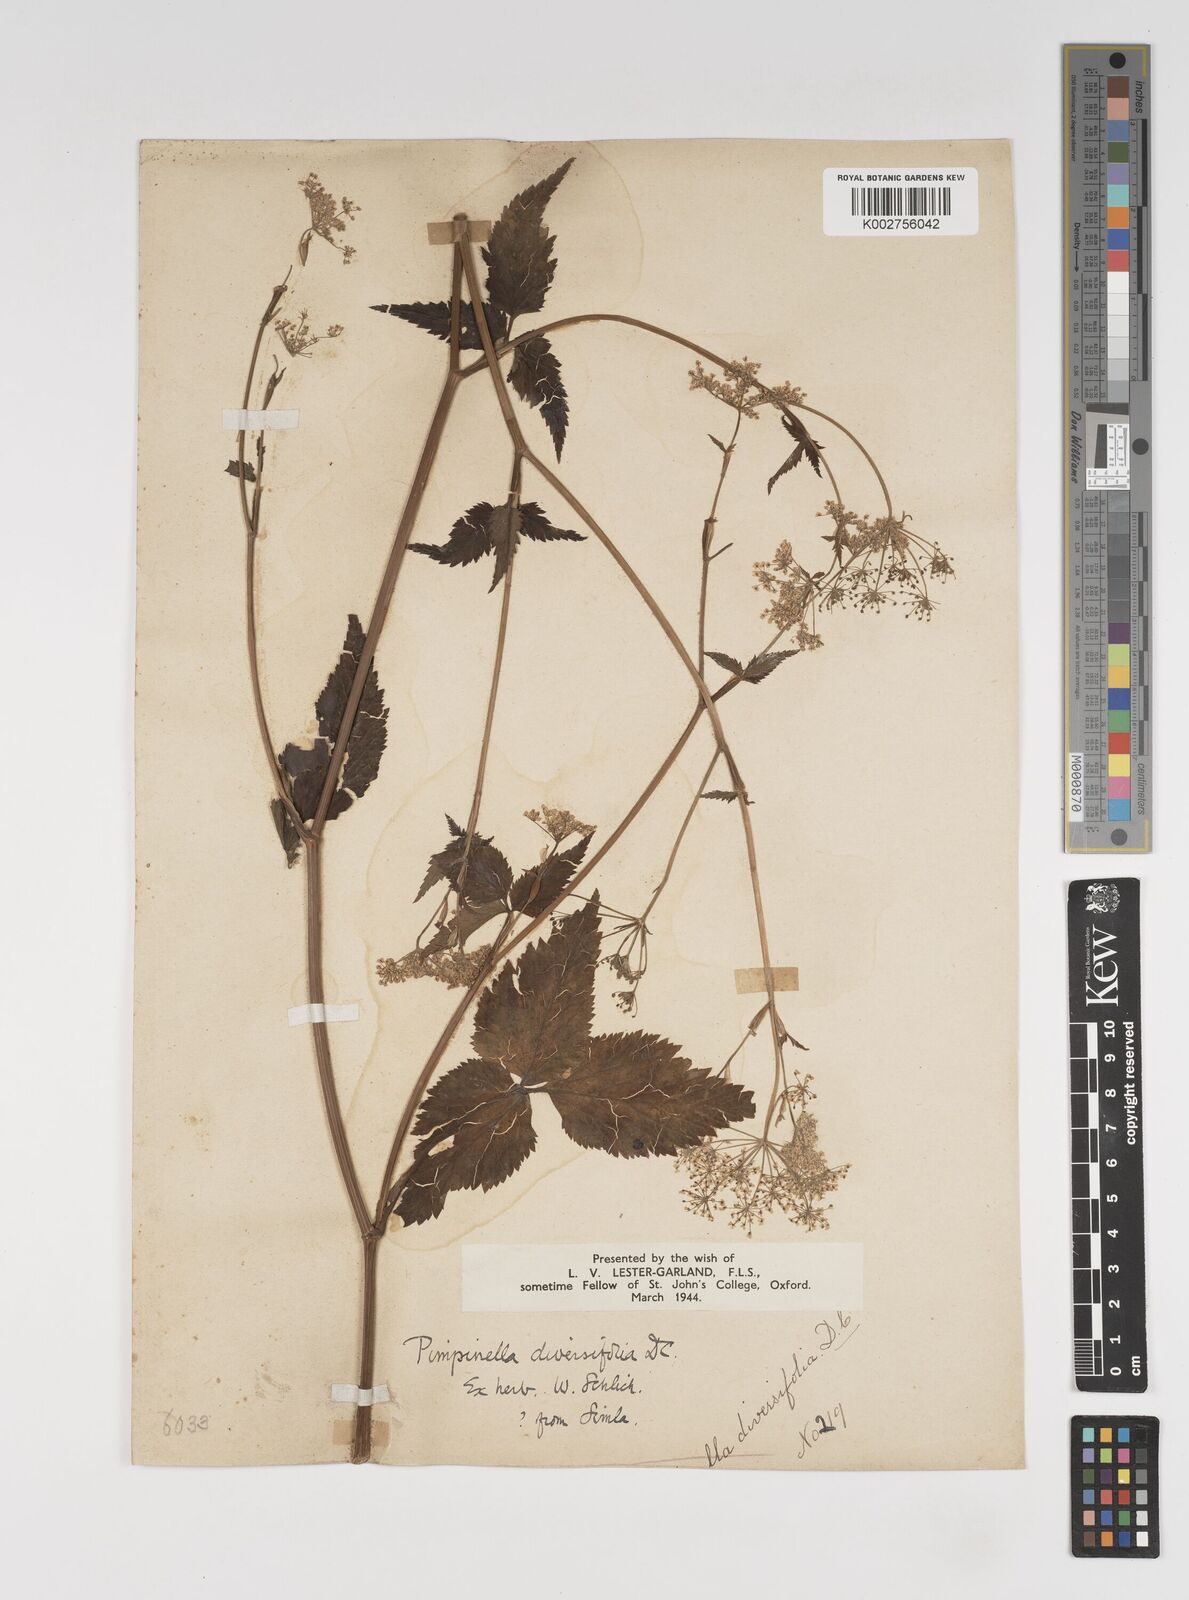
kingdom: Plantae
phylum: Tracheophyta
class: Magnoliopsida
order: Apiales
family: Apiaceae
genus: Pimpinella
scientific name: Pimpinella diversifolia
